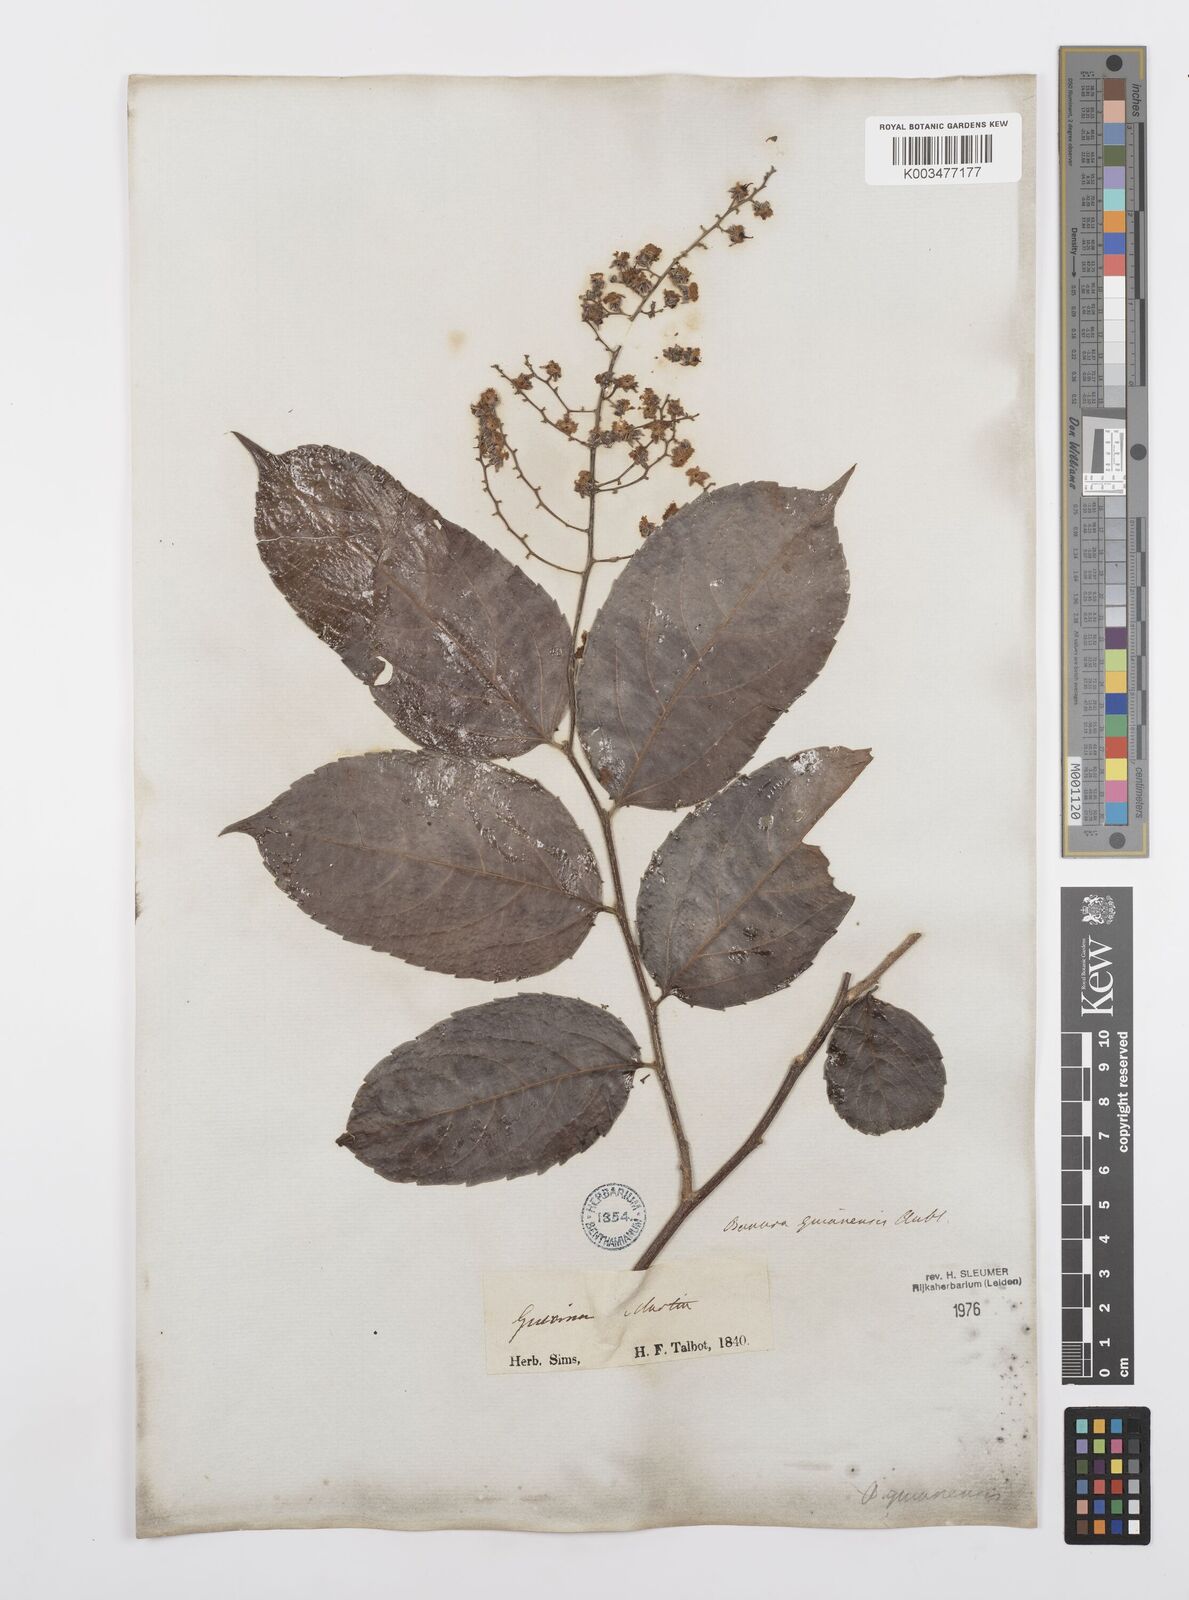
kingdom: Plantae
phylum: Tracheophyta
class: Magnoliopsida
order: Malpighiales
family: Salicaceae
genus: Banara
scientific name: Banara guianensis
